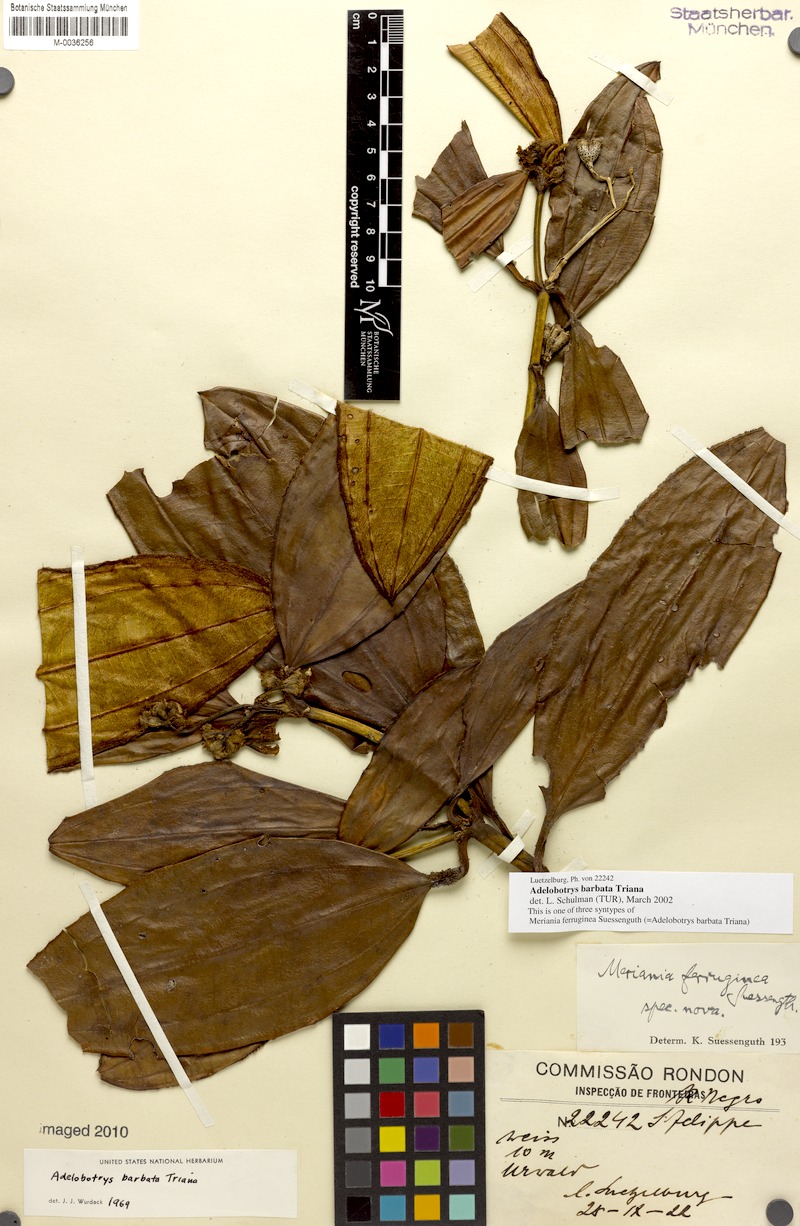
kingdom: Plantae
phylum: Tracheophyta
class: Magnoliopsida
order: Myrtales
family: Melastomataceae
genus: Adelobotrys
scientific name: Adelobotrys barbatus
